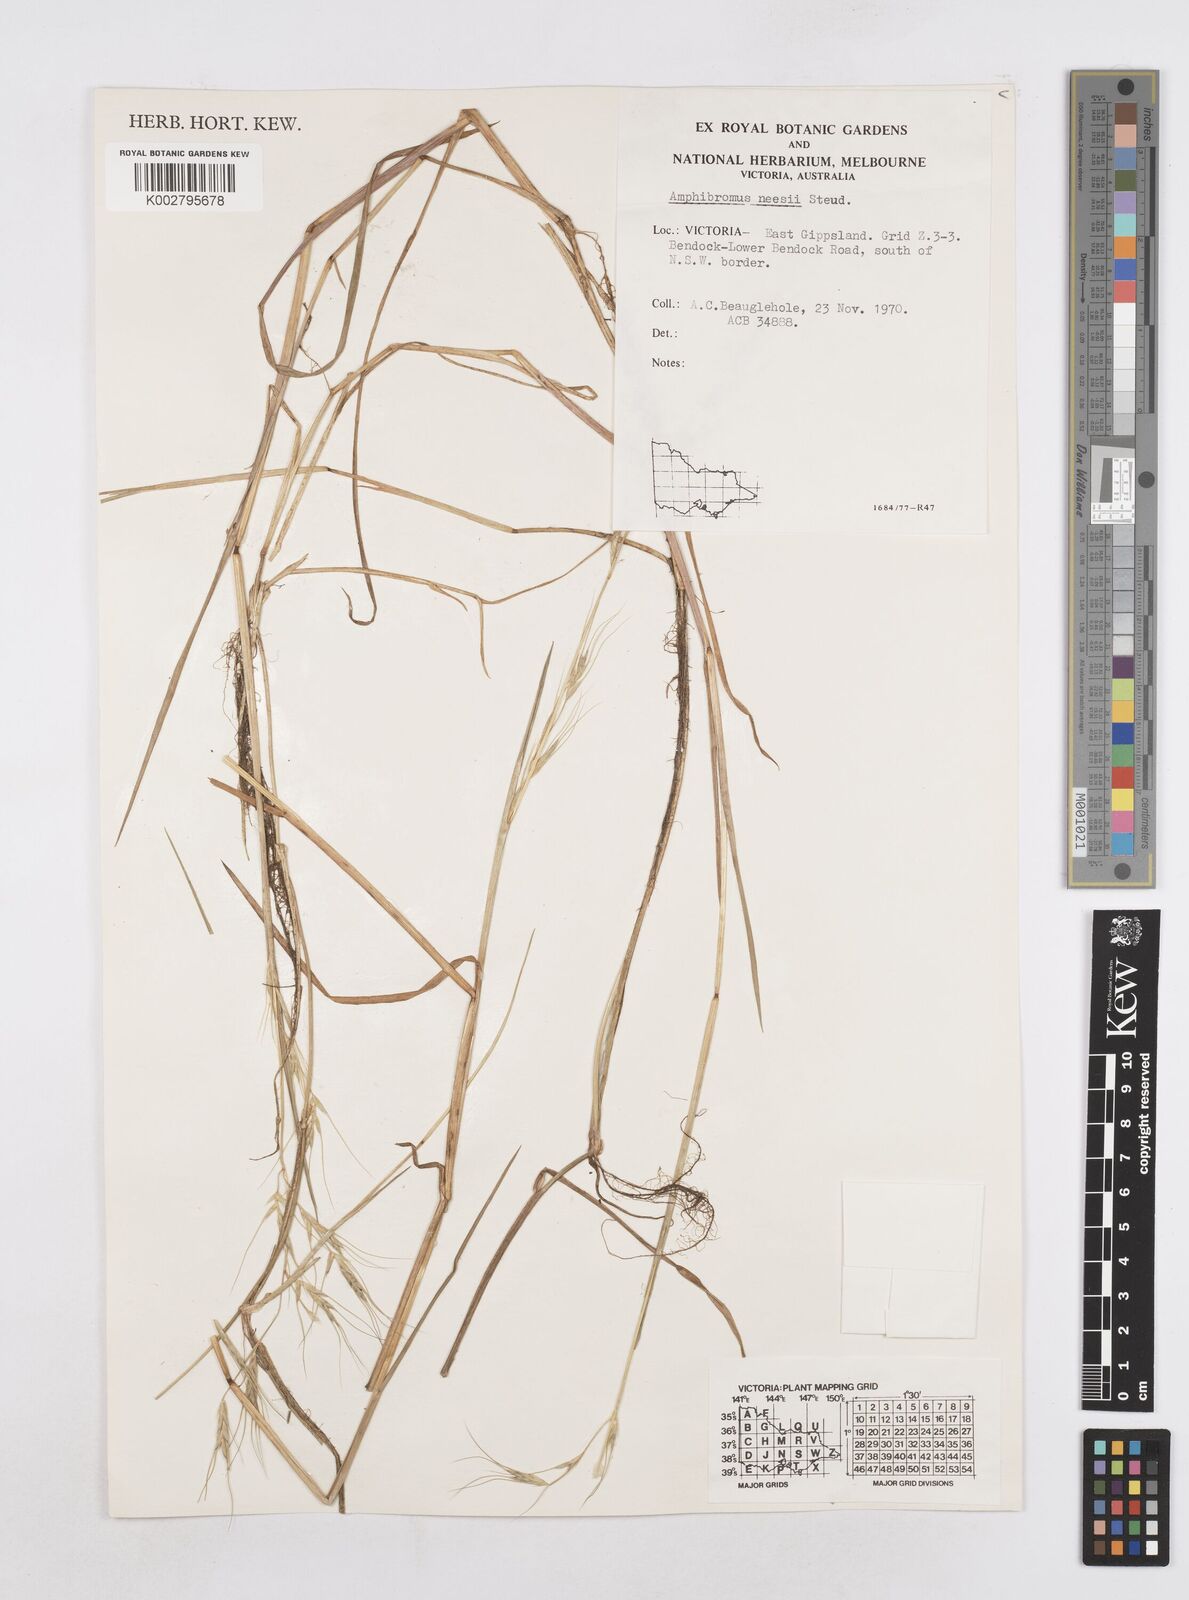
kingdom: Plantae
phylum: Tracheophyta
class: Liliopsida
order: Poales
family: Poaceae
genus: Amphibromus
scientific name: Amphibromus neesii
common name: Australian wallaby grass
